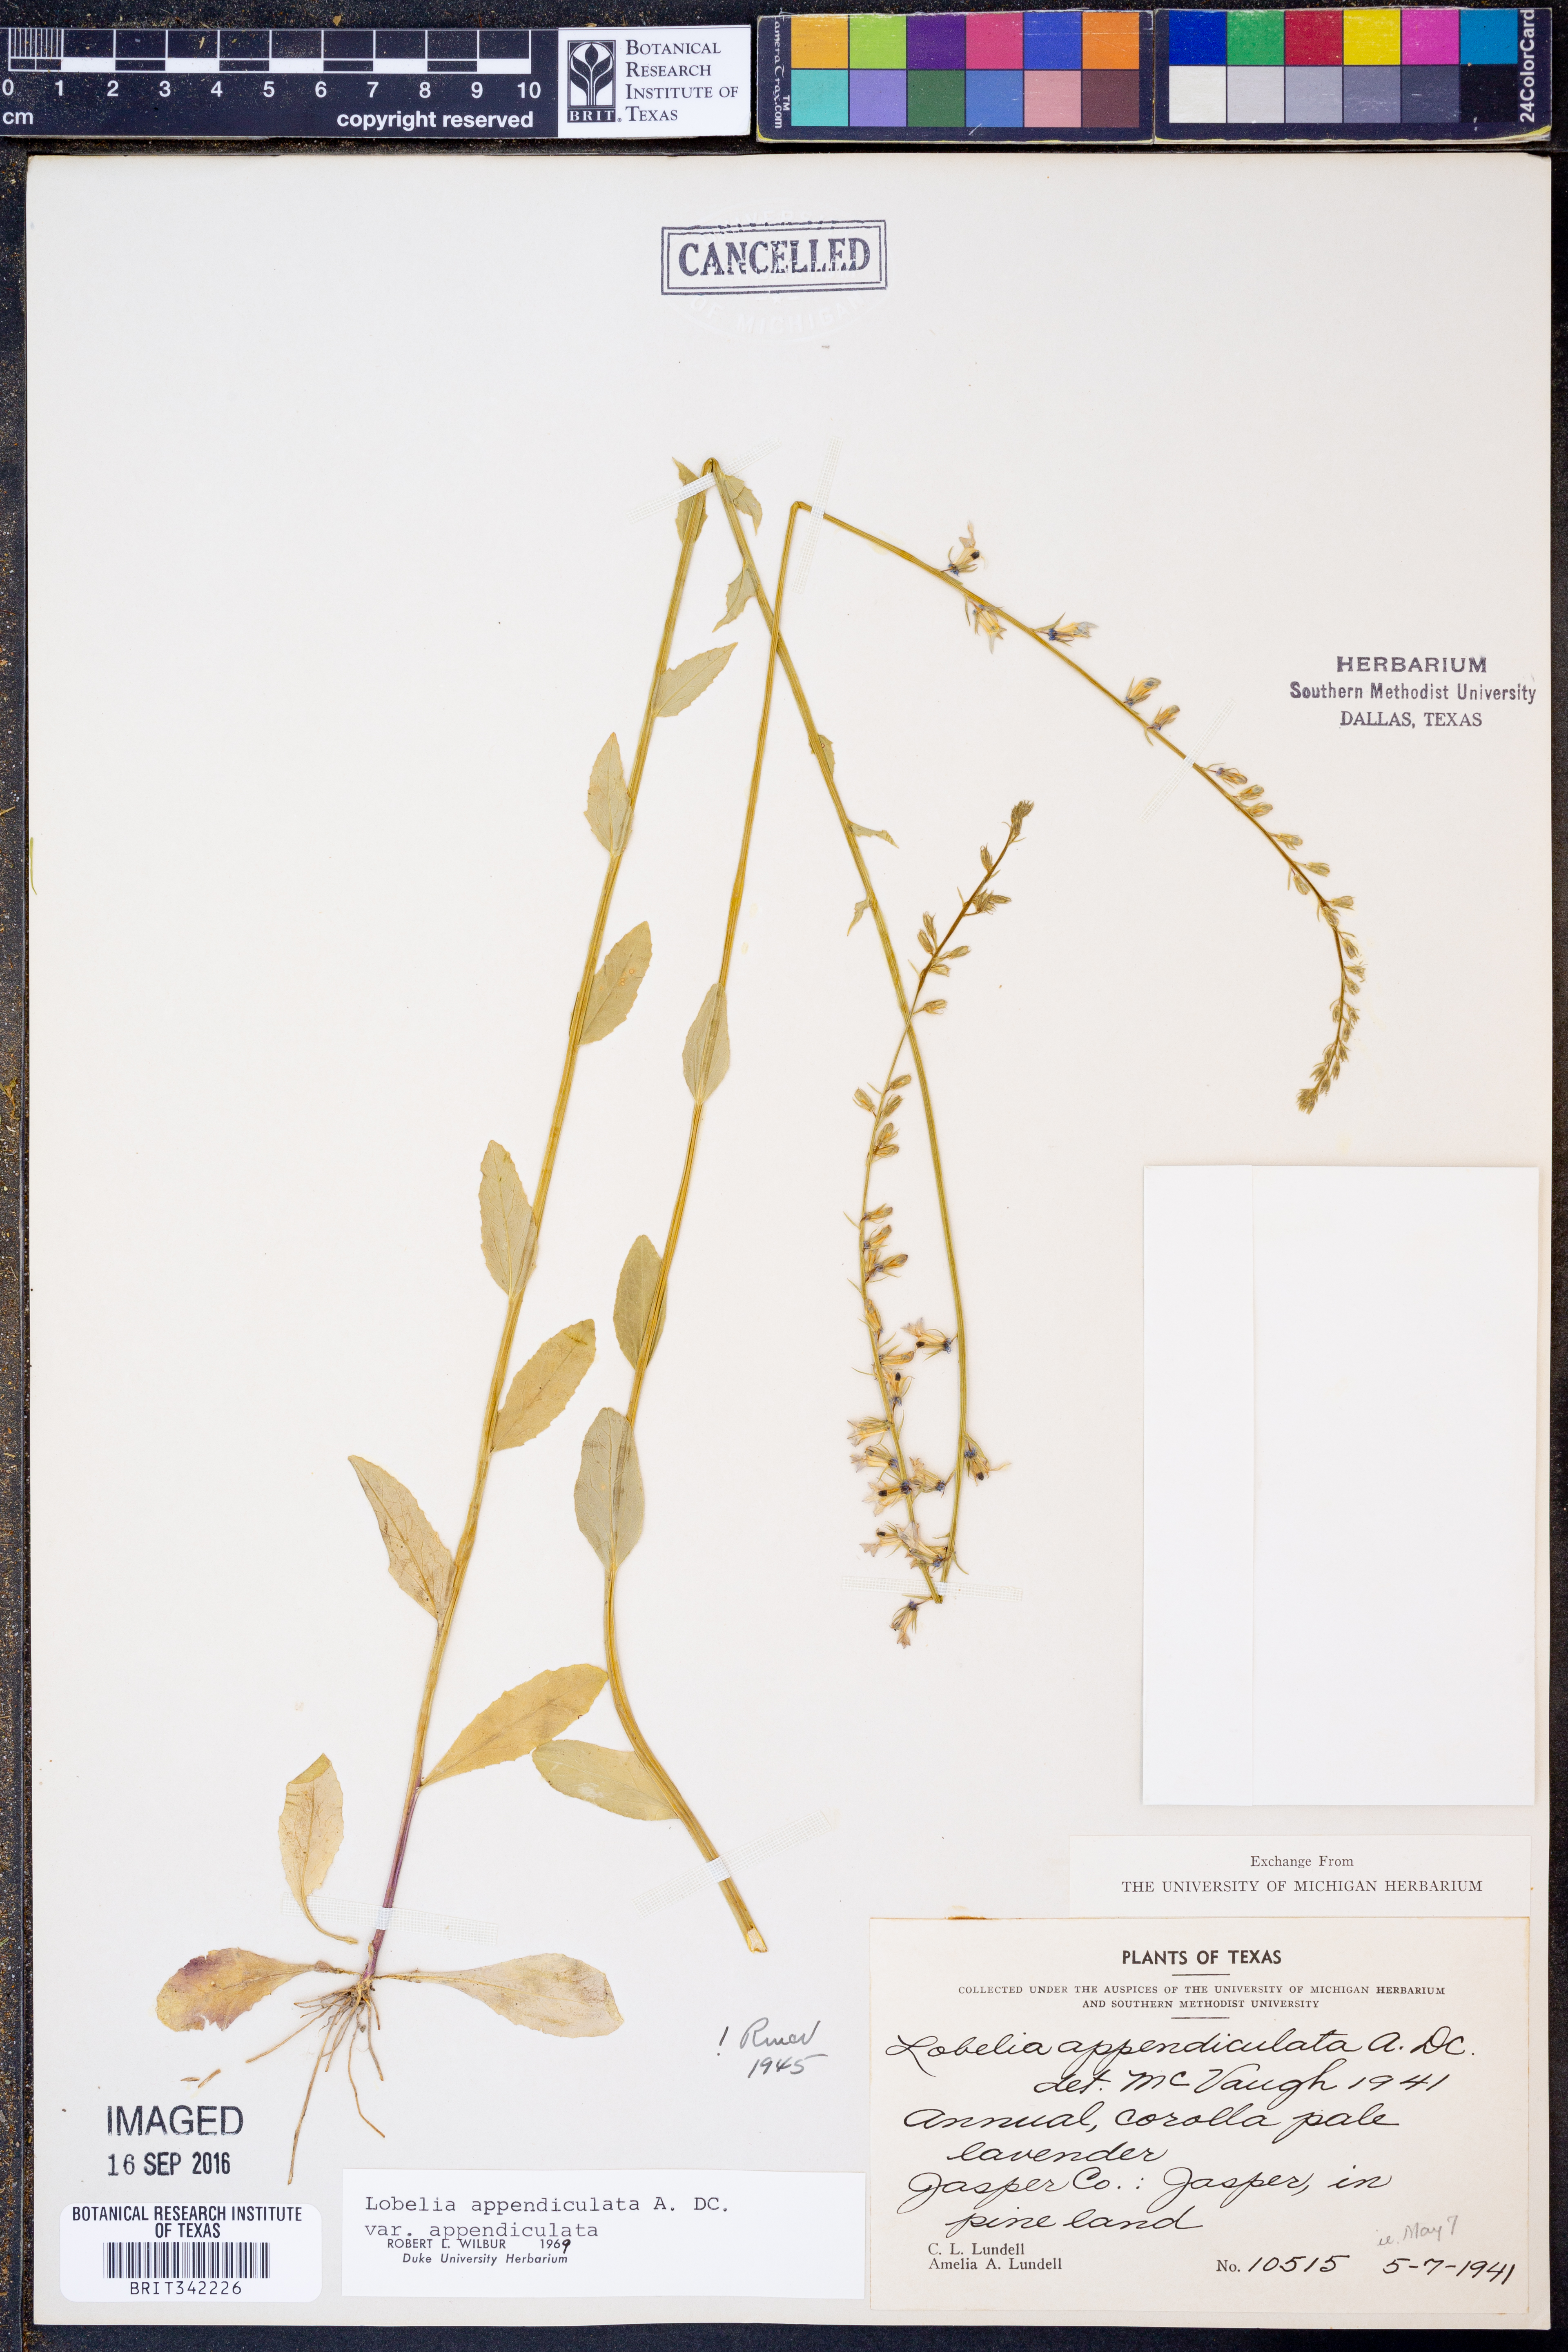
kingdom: Plantae
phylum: Tracheophyta
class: Magnoliopsida
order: Asterales
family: Campanulaceae
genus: Lobelia
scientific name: Lobelia appendiculata
